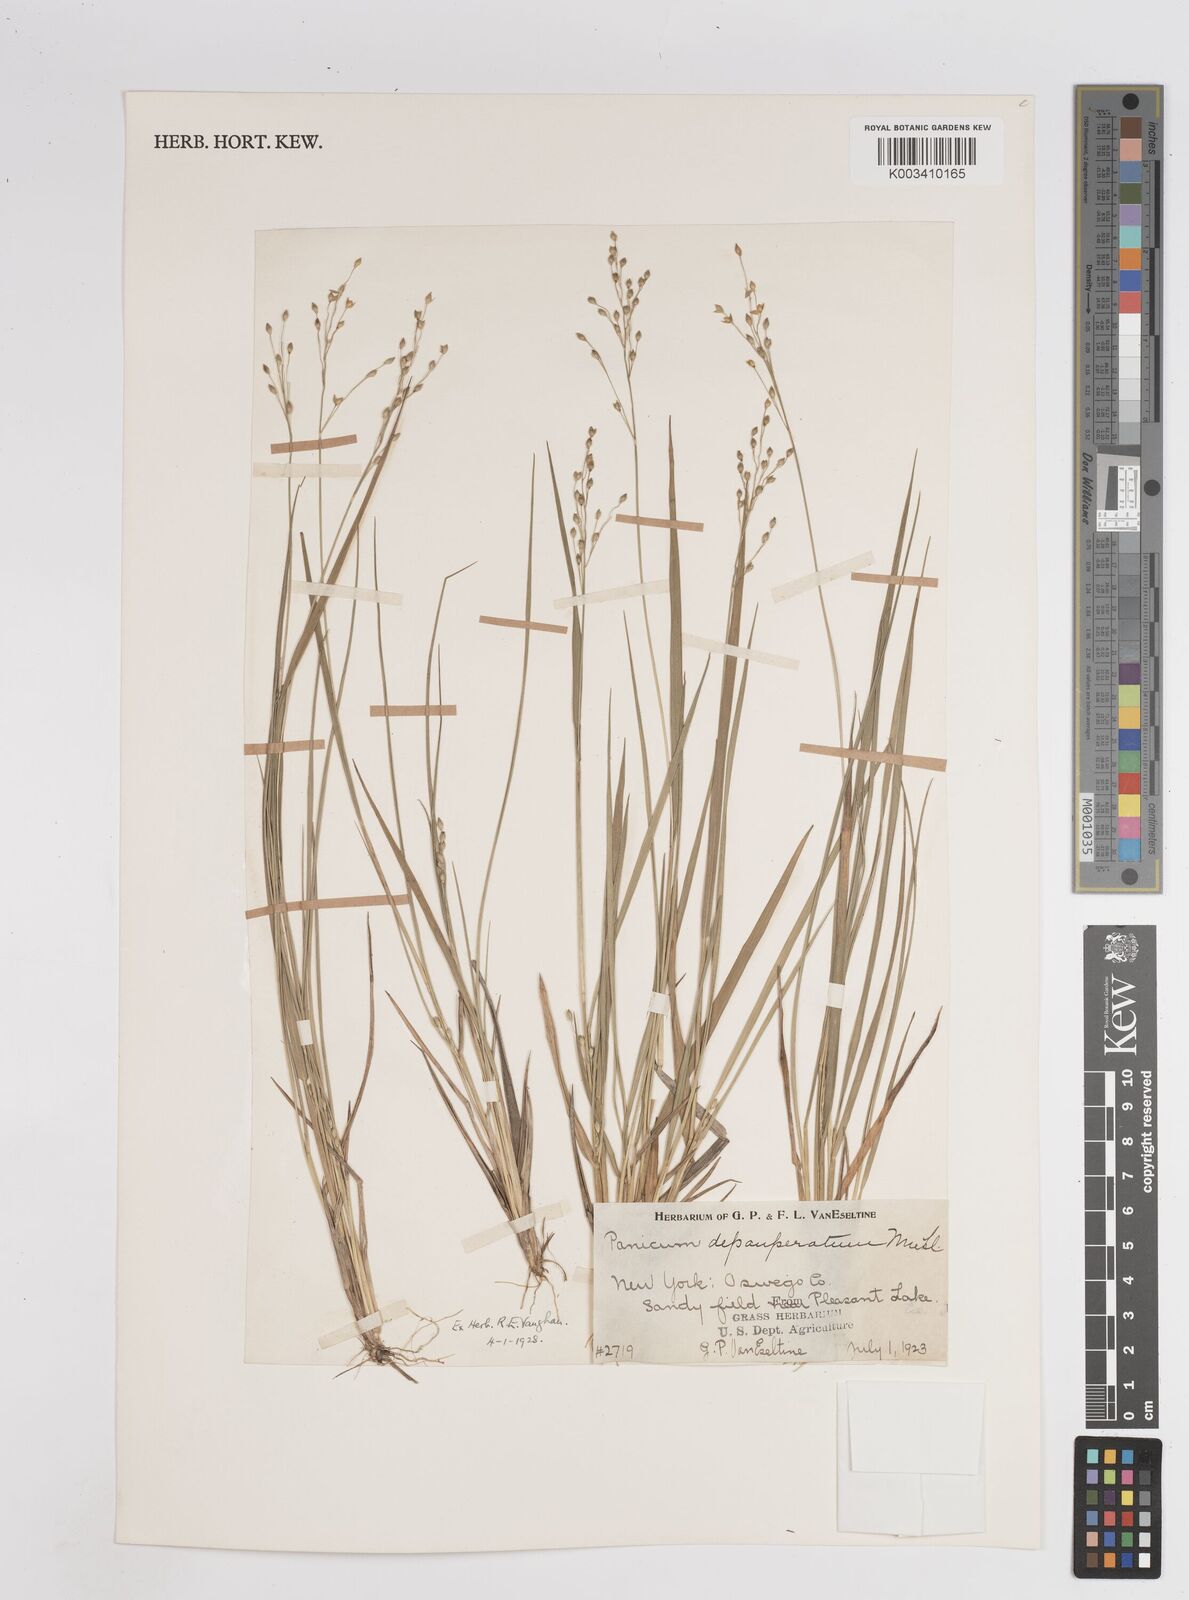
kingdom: Plantae
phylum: Tracheophyta
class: Liliopsida
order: Poales
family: Poaceae
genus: Dichanthelium
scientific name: Dichanthelium depauperatum
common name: Depauperate panicgrass
